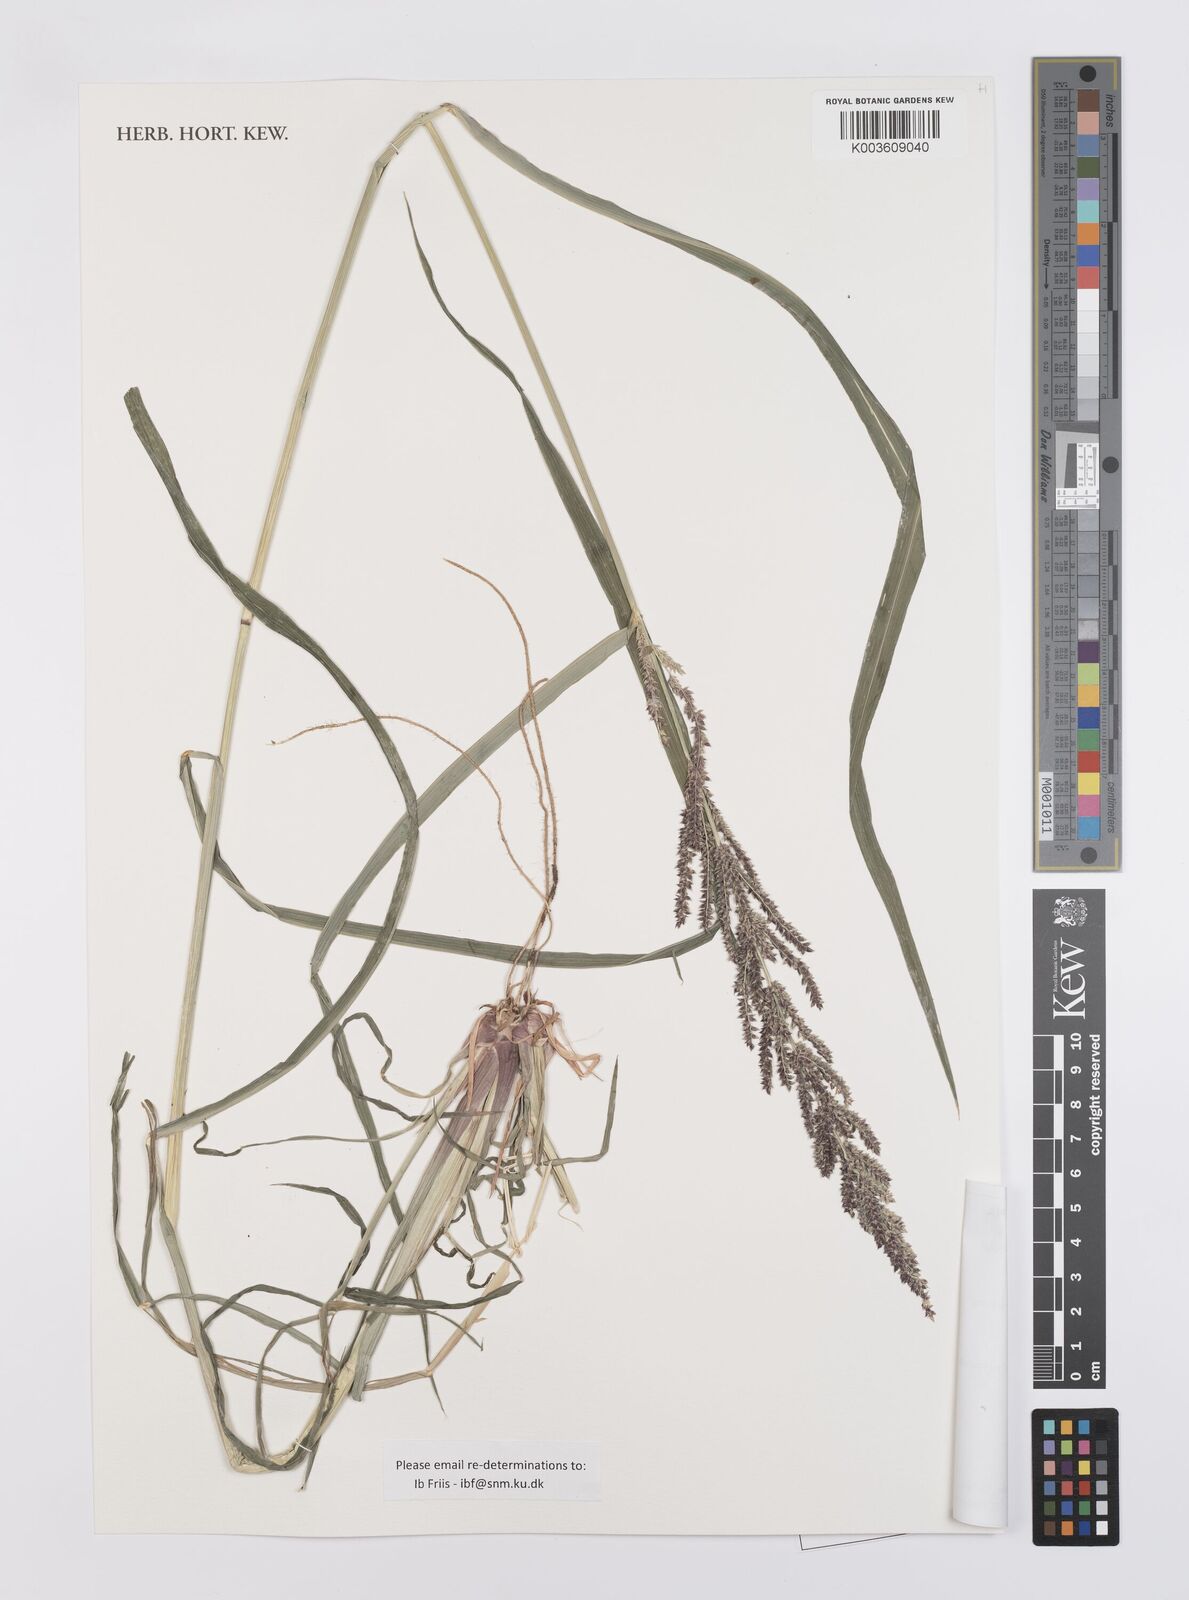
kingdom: Plantae
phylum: Tracheophyta
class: Liliopsida
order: Poales
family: Poaceae
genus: Echinochloa
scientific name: Echinochloa haploclada
